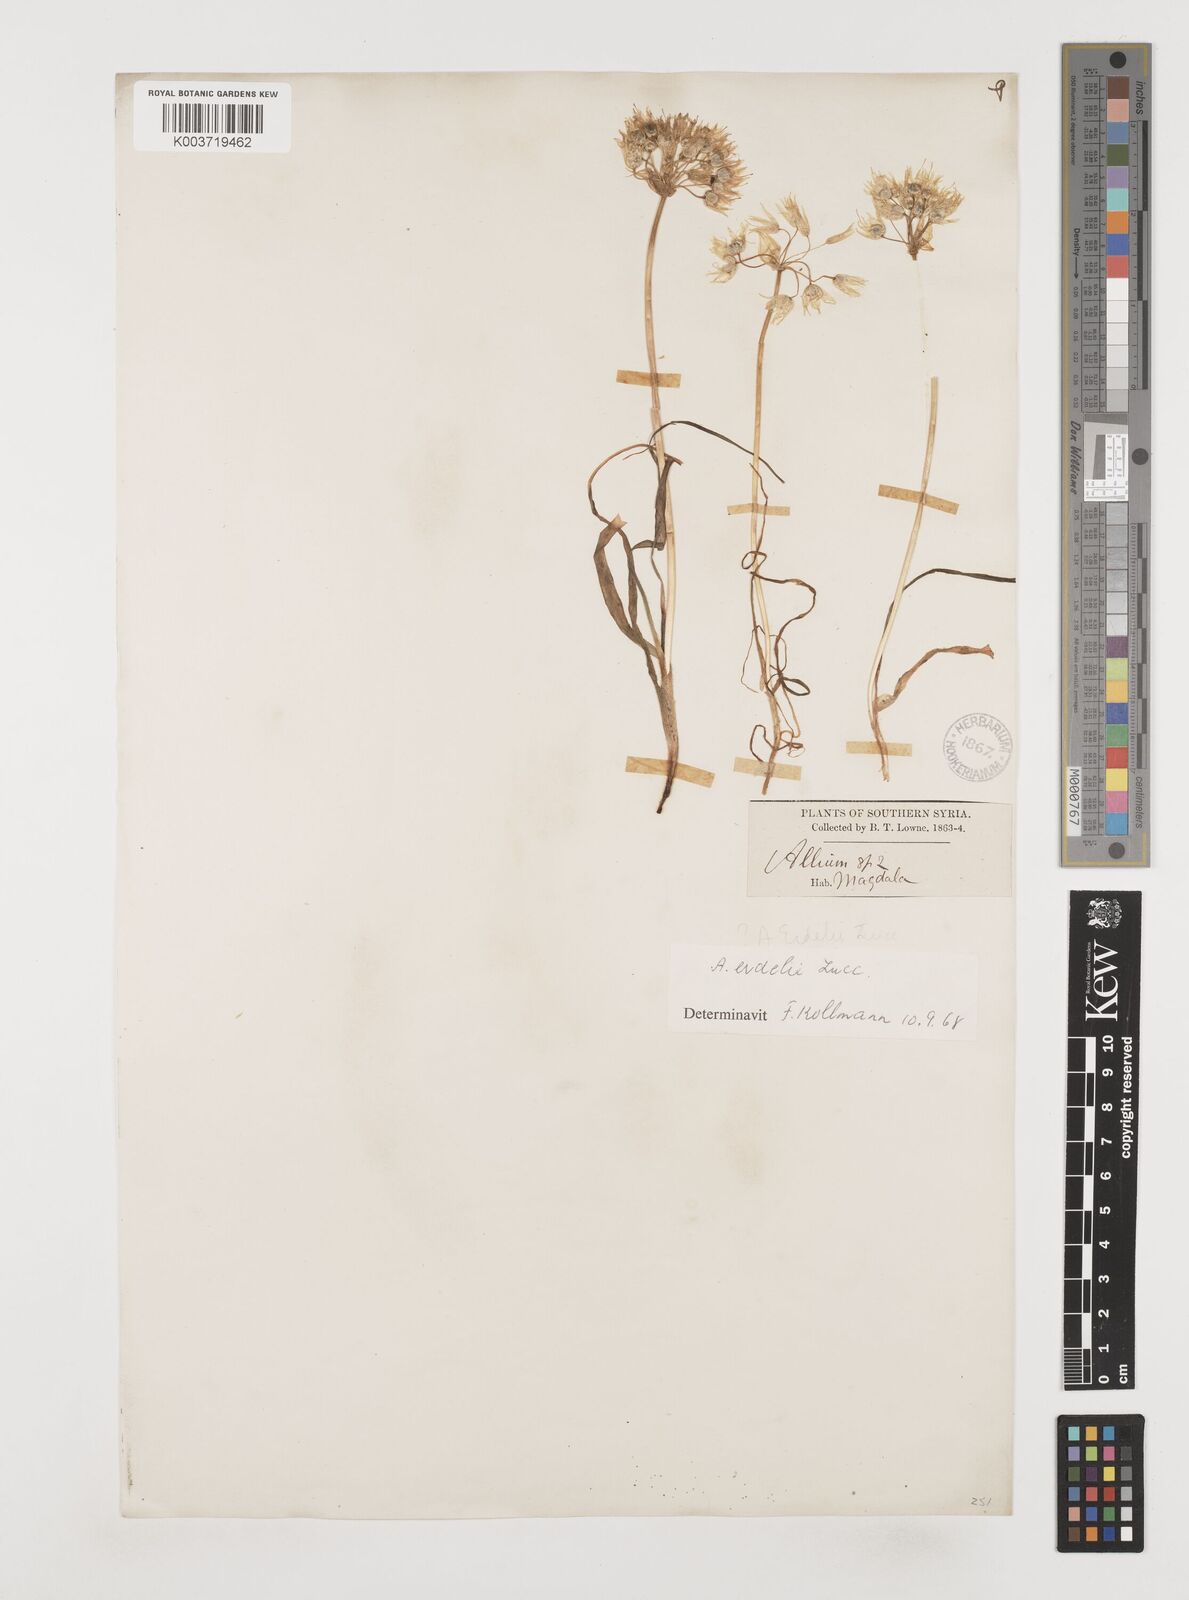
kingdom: Plantae
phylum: Tracheophyta
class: Liliopsida
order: Asparagales
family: Amaryllidaceae
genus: Allium
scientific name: Allium erdelii
